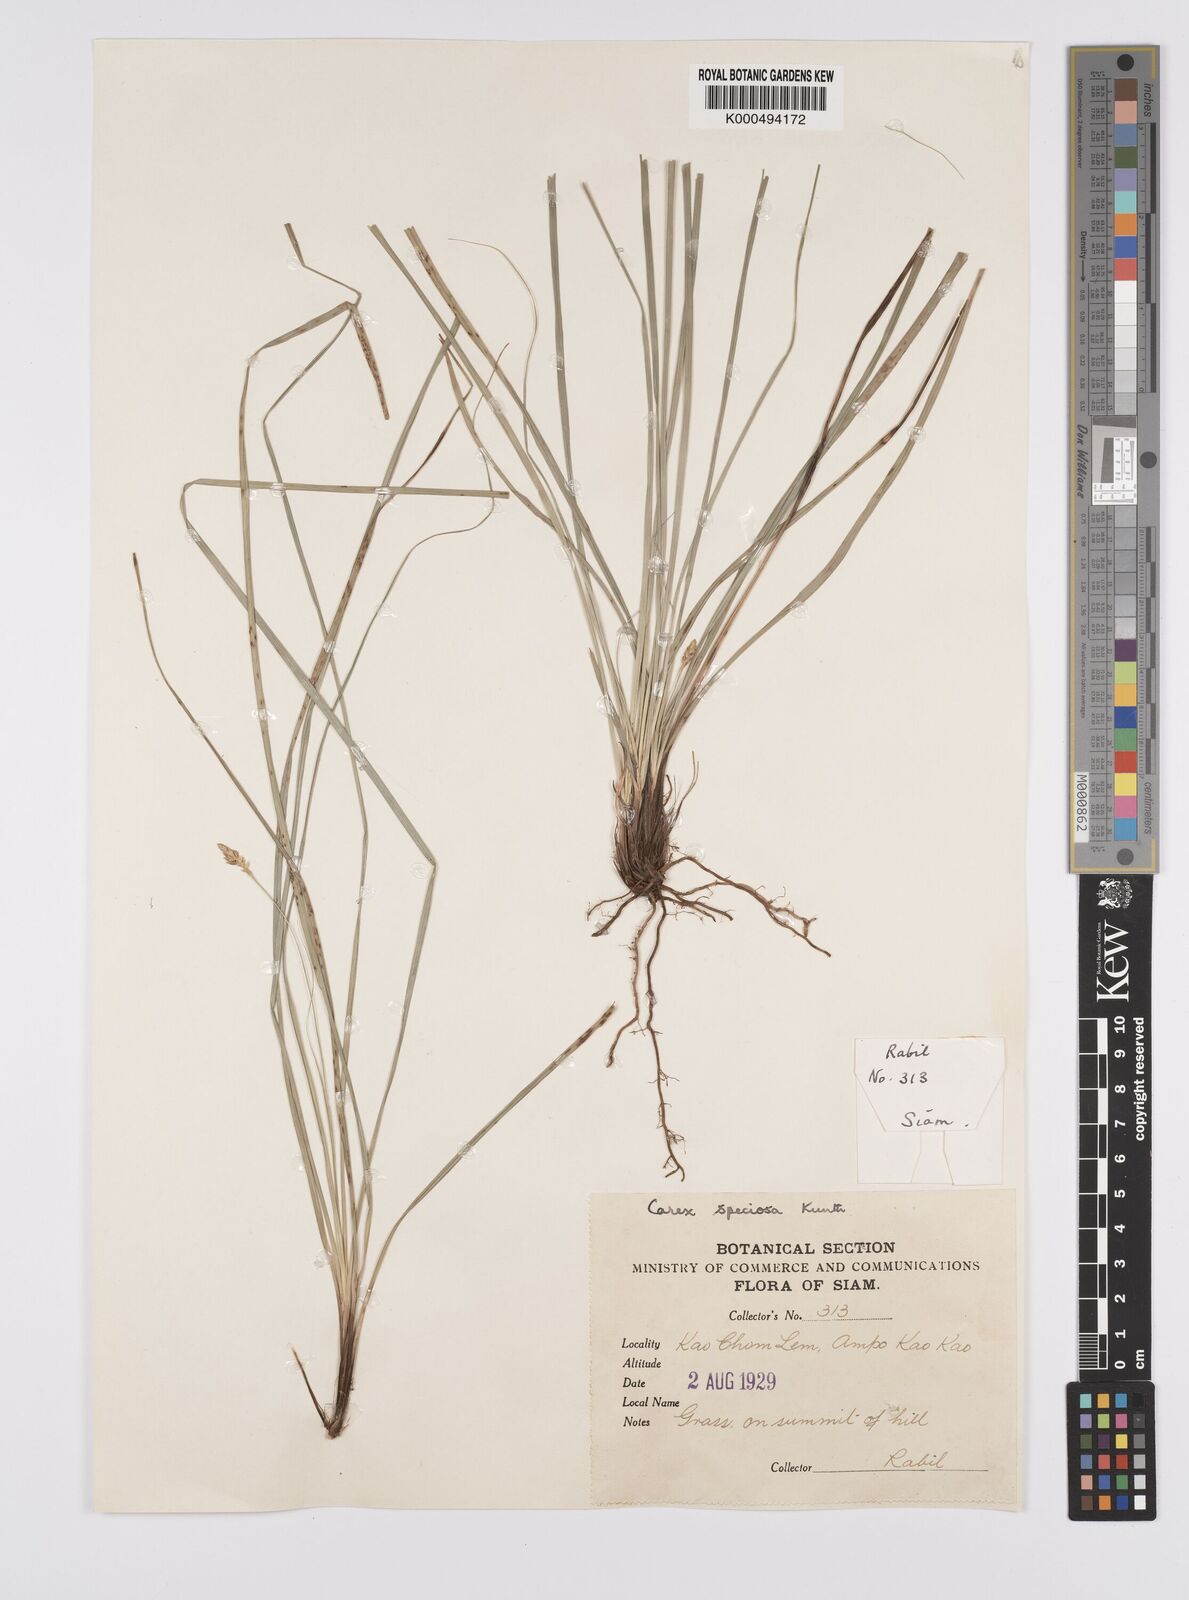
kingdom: Plantae
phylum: Tracheophyta
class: Liliopsida
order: Poales
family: Cyperaceae
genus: Carex
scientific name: Carex speciosa
